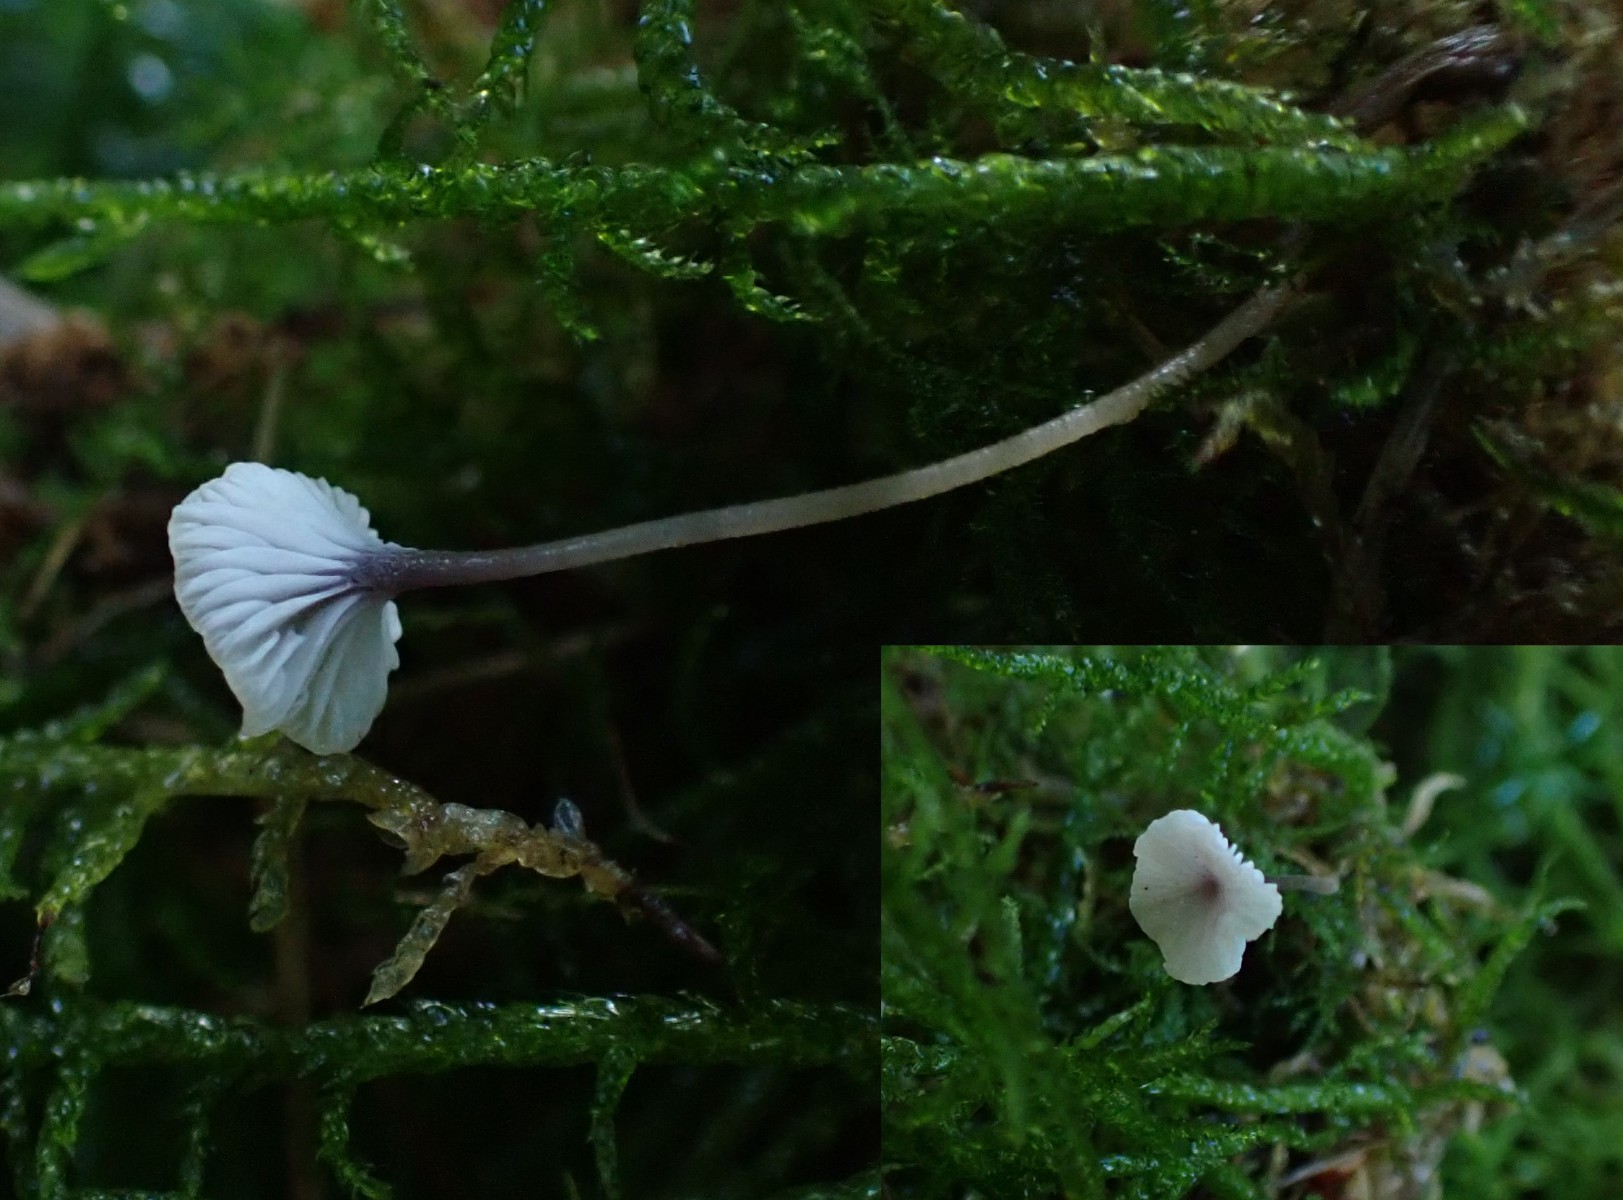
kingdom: Fungi
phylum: Basidiomycota
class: Agaricomycetes
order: Hymenochaetales
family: Rickenellaceae
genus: Rickenella
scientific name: Rickenella swartzii
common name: finstokket mosnavlehat
